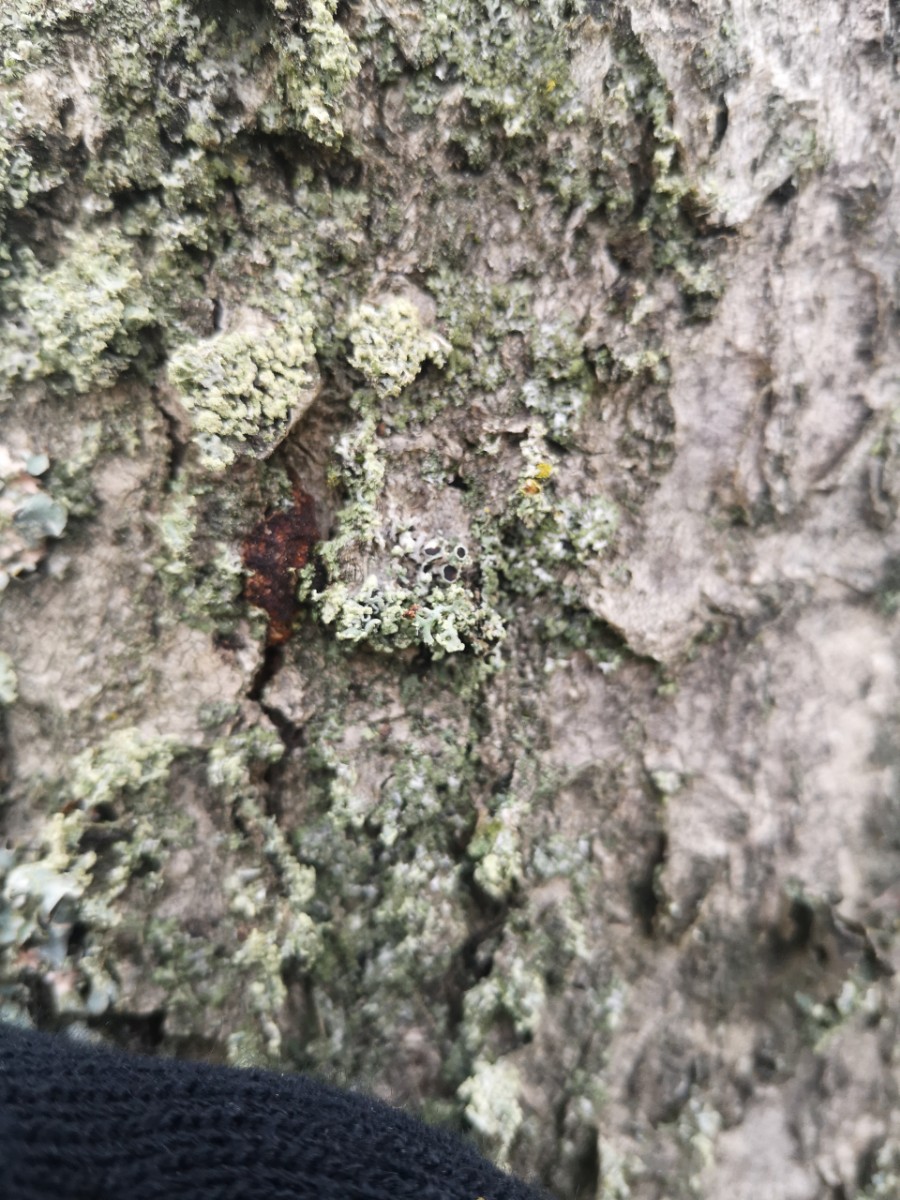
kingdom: Fungi
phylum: Ascomycota
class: Lecanoromycetes
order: Caliciales
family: Physciaceae
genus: Physcia
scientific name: Physcia tenella
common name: spæd rosetlav
